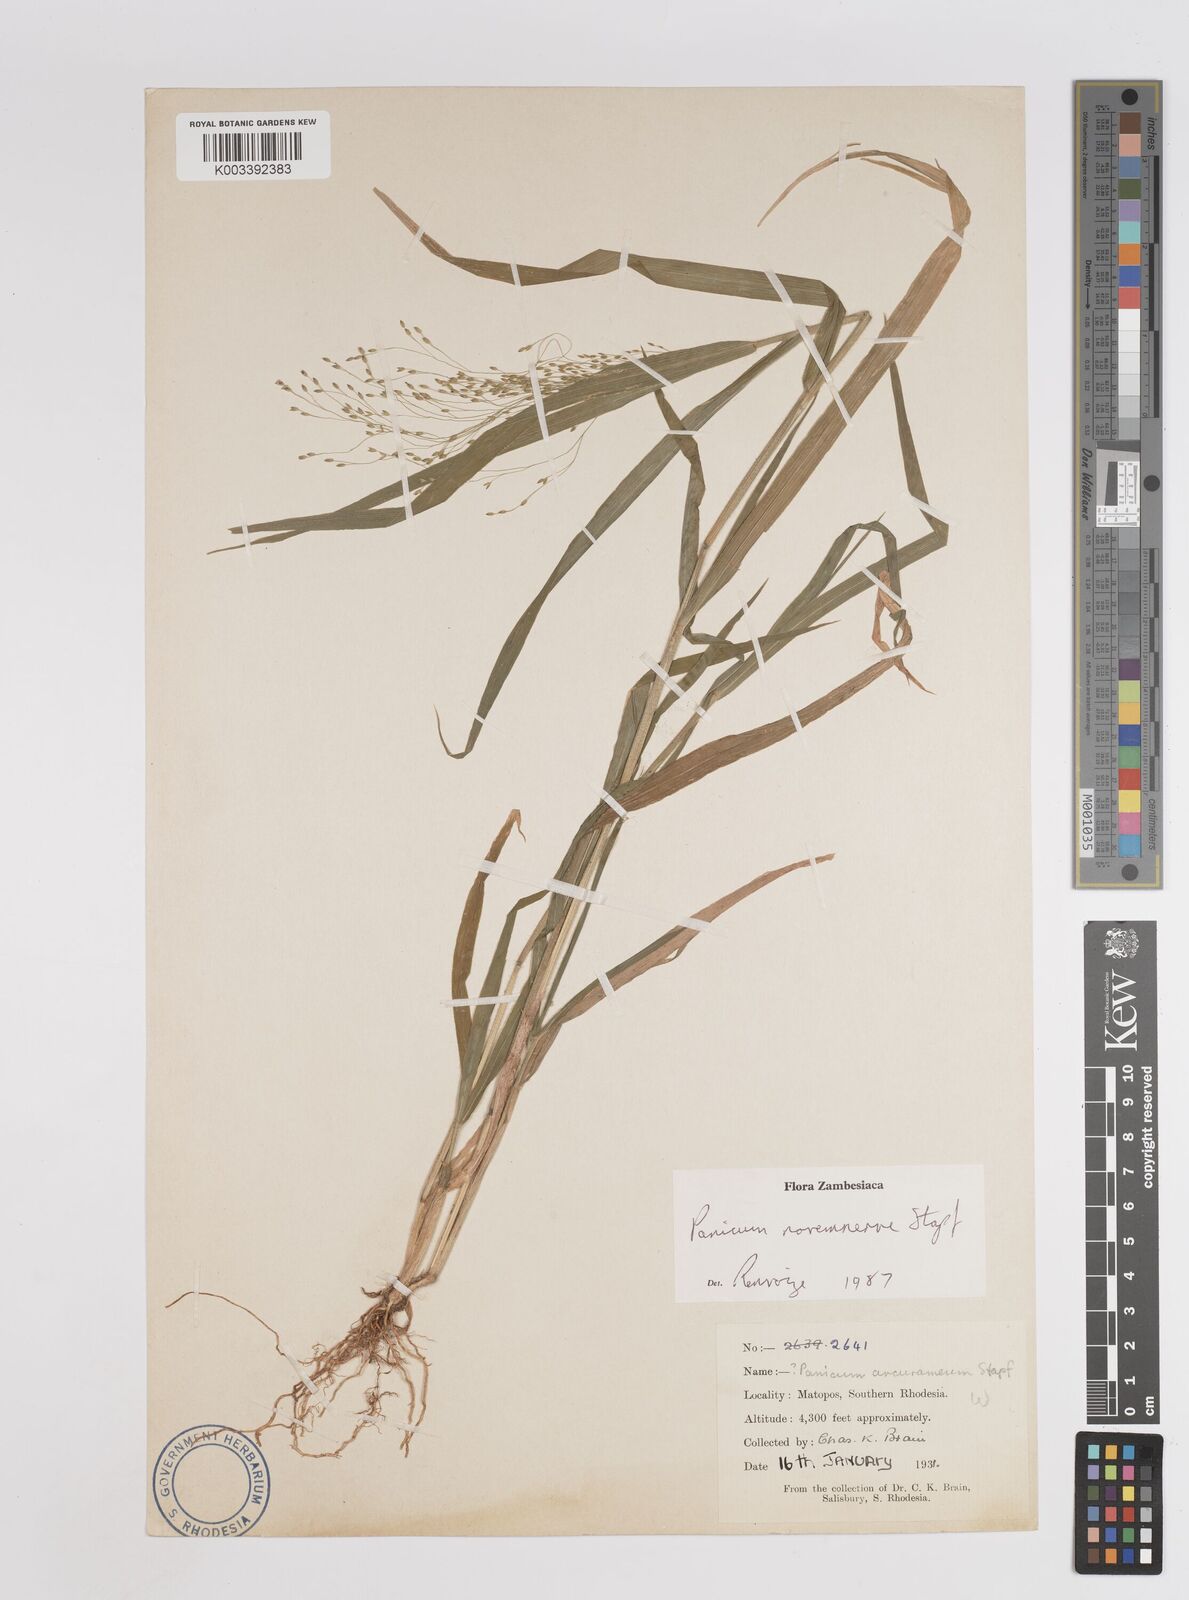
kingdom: Plantae
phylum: Tracheophyta
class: Liliopsida
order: Poales
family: Poaceae
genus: Panicum
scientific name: Panicum novemnerve
